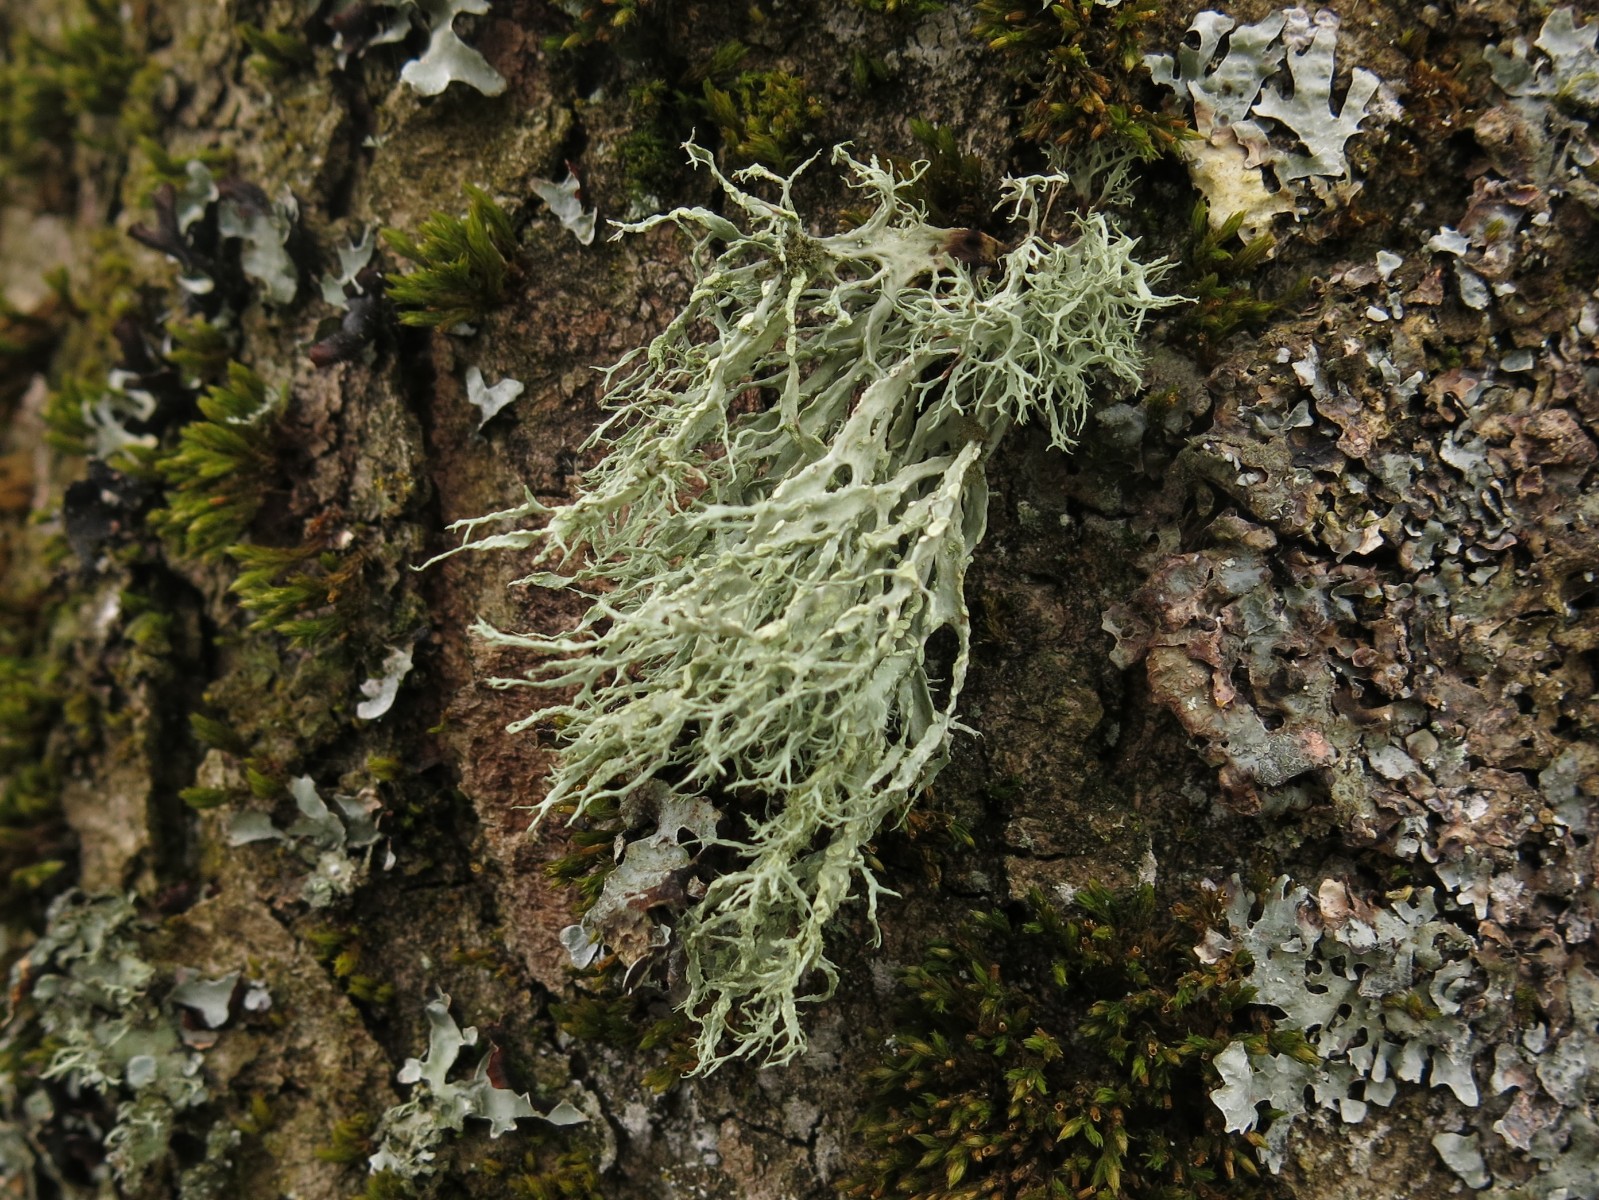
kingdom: Fungi
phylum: Ascomycota
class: Lecanoromycetes
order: Lecanorales
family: Ramalinaceae
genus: Ramalina
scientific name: Ramalina farinacea
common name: melet grenlav
